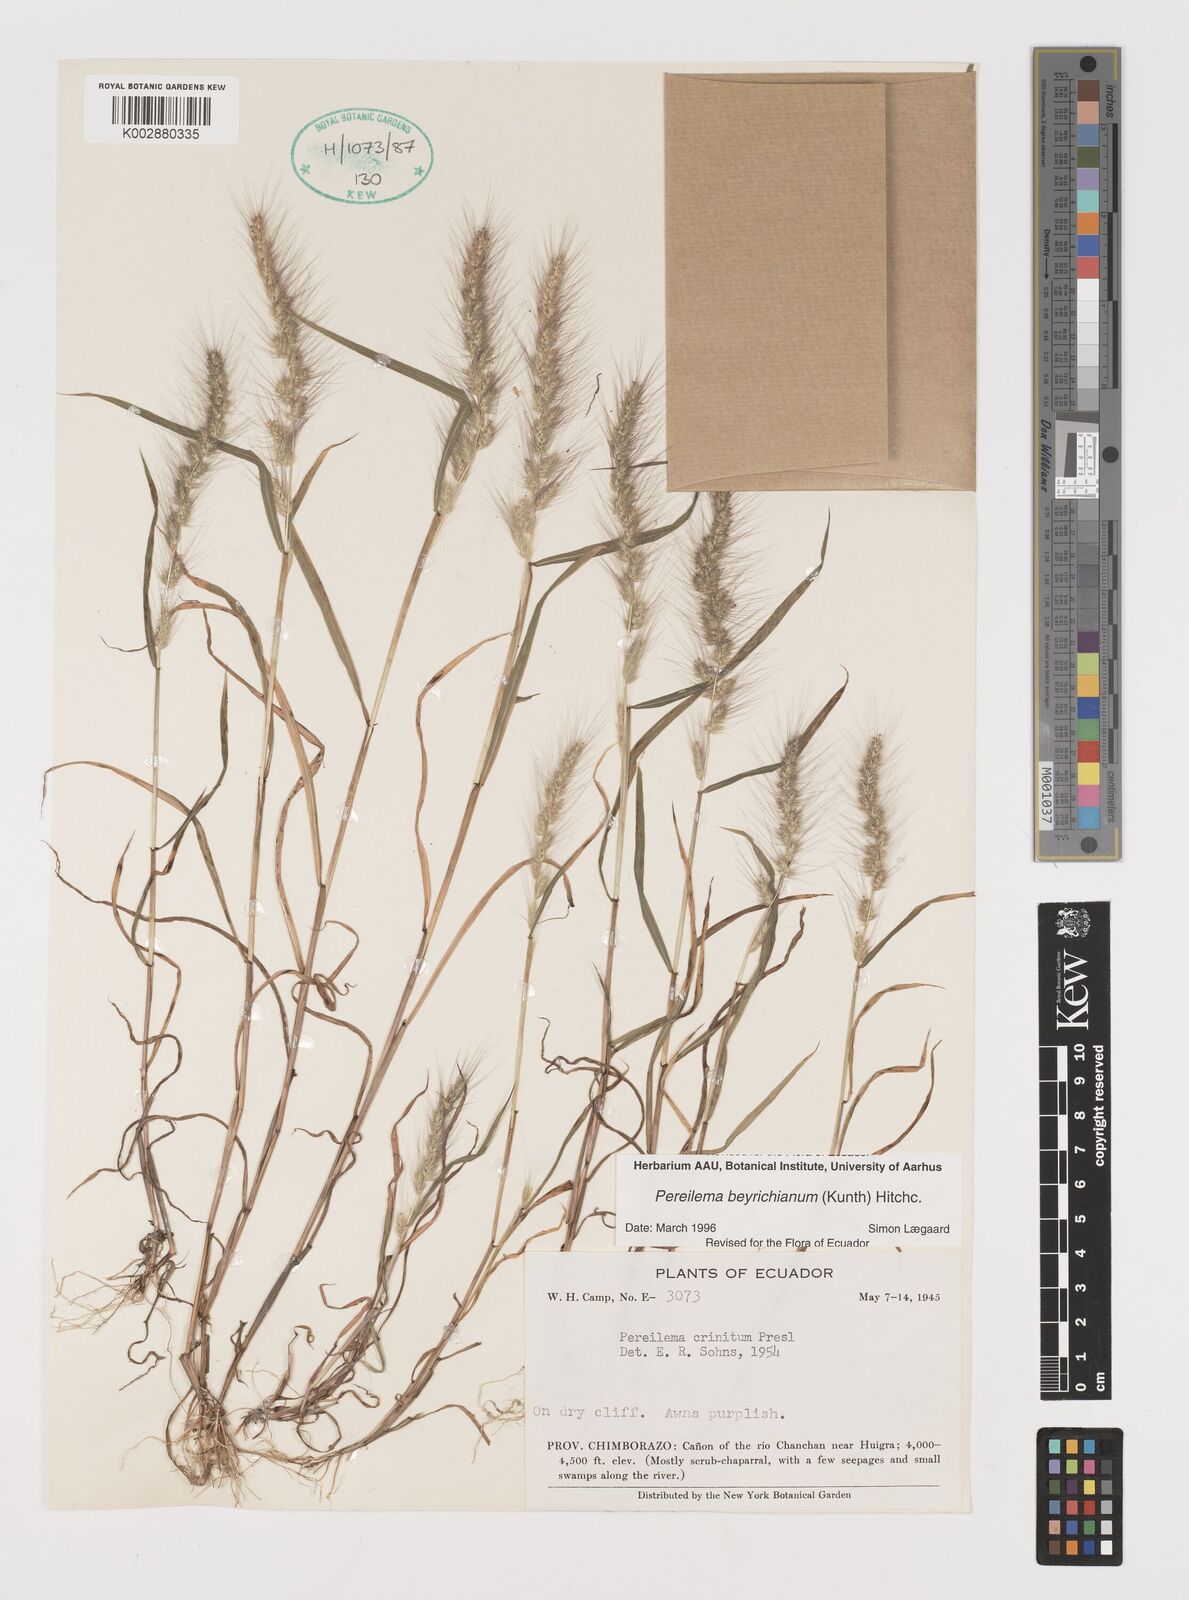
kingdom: Plantae
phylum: Tracheophyta
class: Liliopsida
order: Poales
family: Poaceae
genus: Muhlenbergia
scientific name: Muhlenbergia beyrichiana
